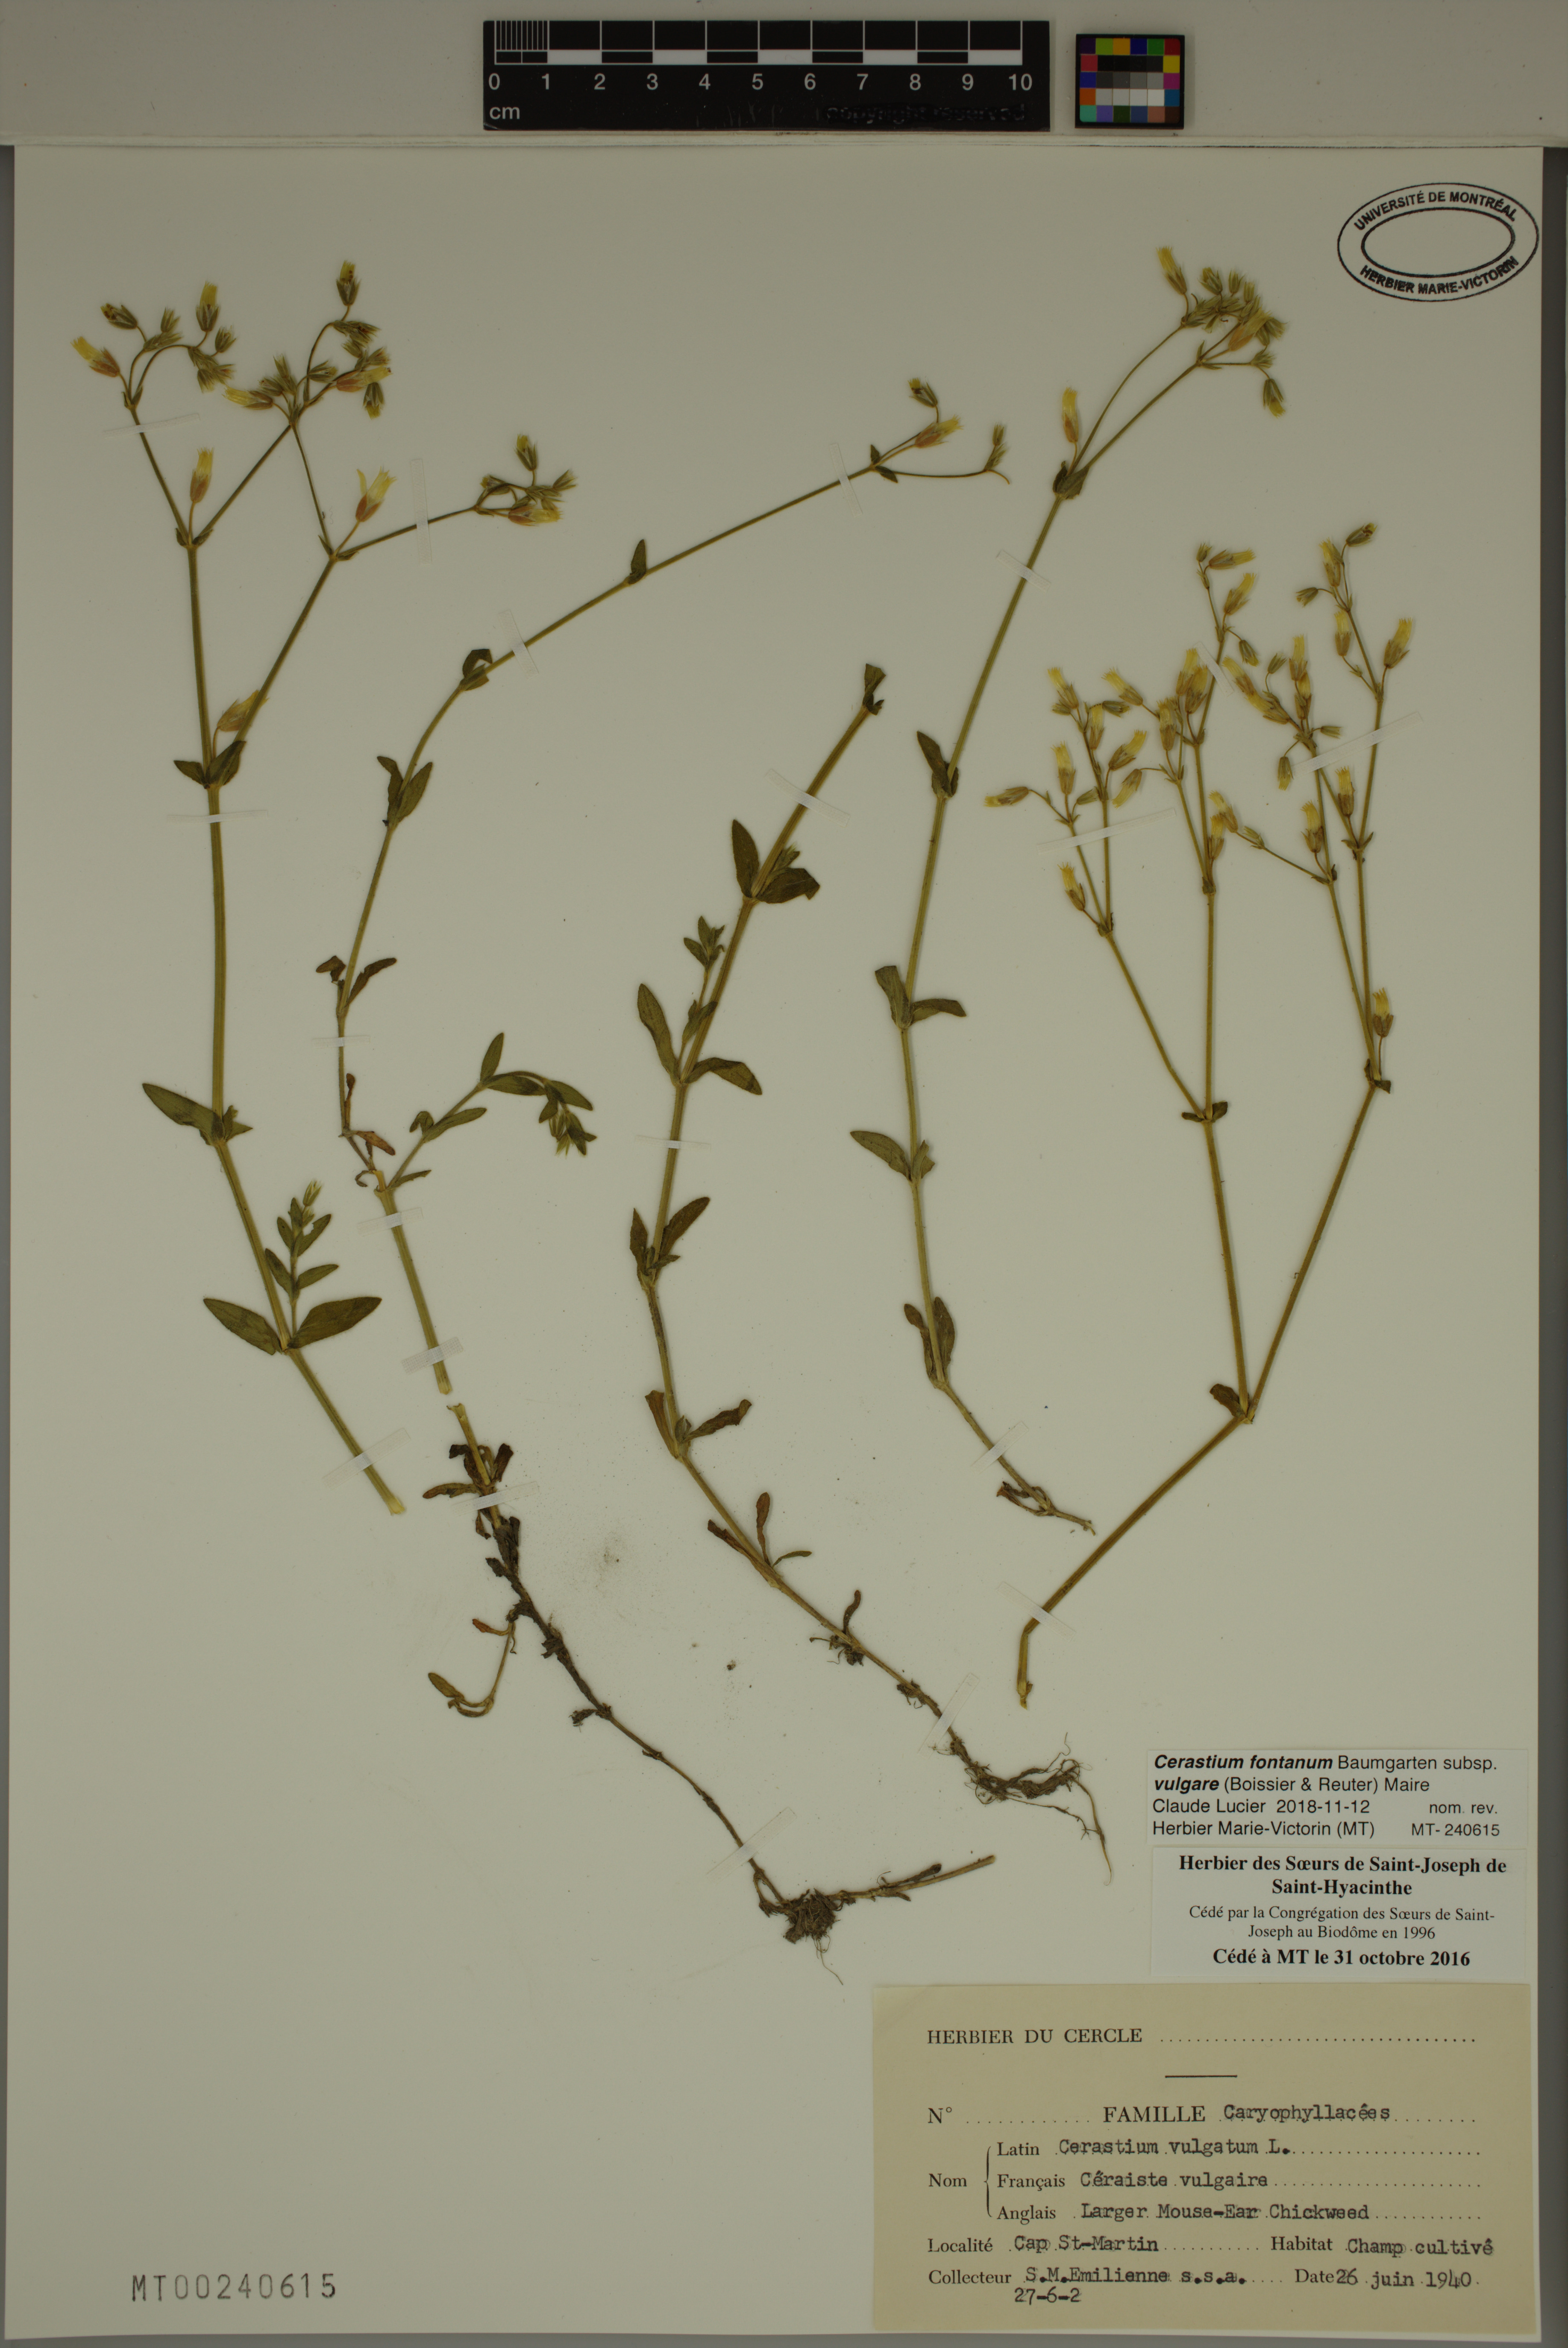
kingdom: Plantae
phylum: Tracheophyta
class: Magnoliopsida
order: Caryophyllales
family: Caryophyllaceae
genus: Cerastium
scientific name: Cerastium holosteoides
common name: Big chickweed
